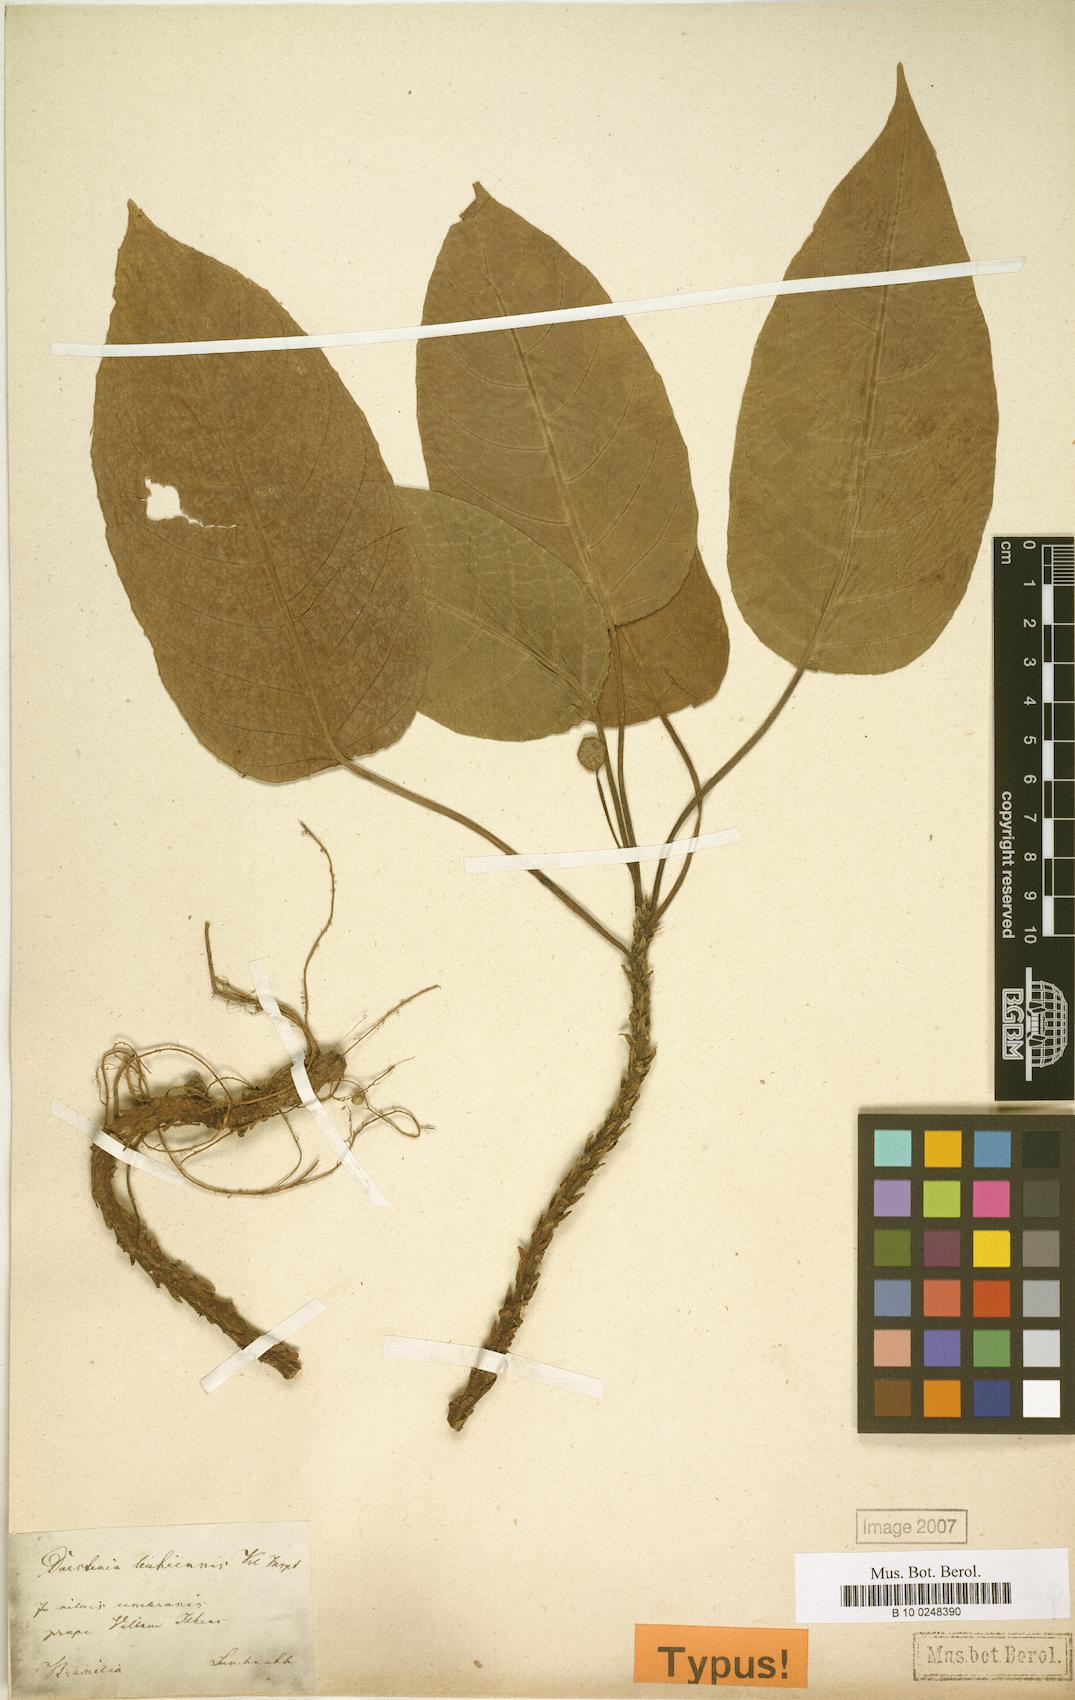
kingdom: Plantae
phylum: Tracheophyta
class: Magnoliopsida
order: Rosales
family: Moraceae
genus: Dorstenia
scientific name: Dorstenia bahiensis
